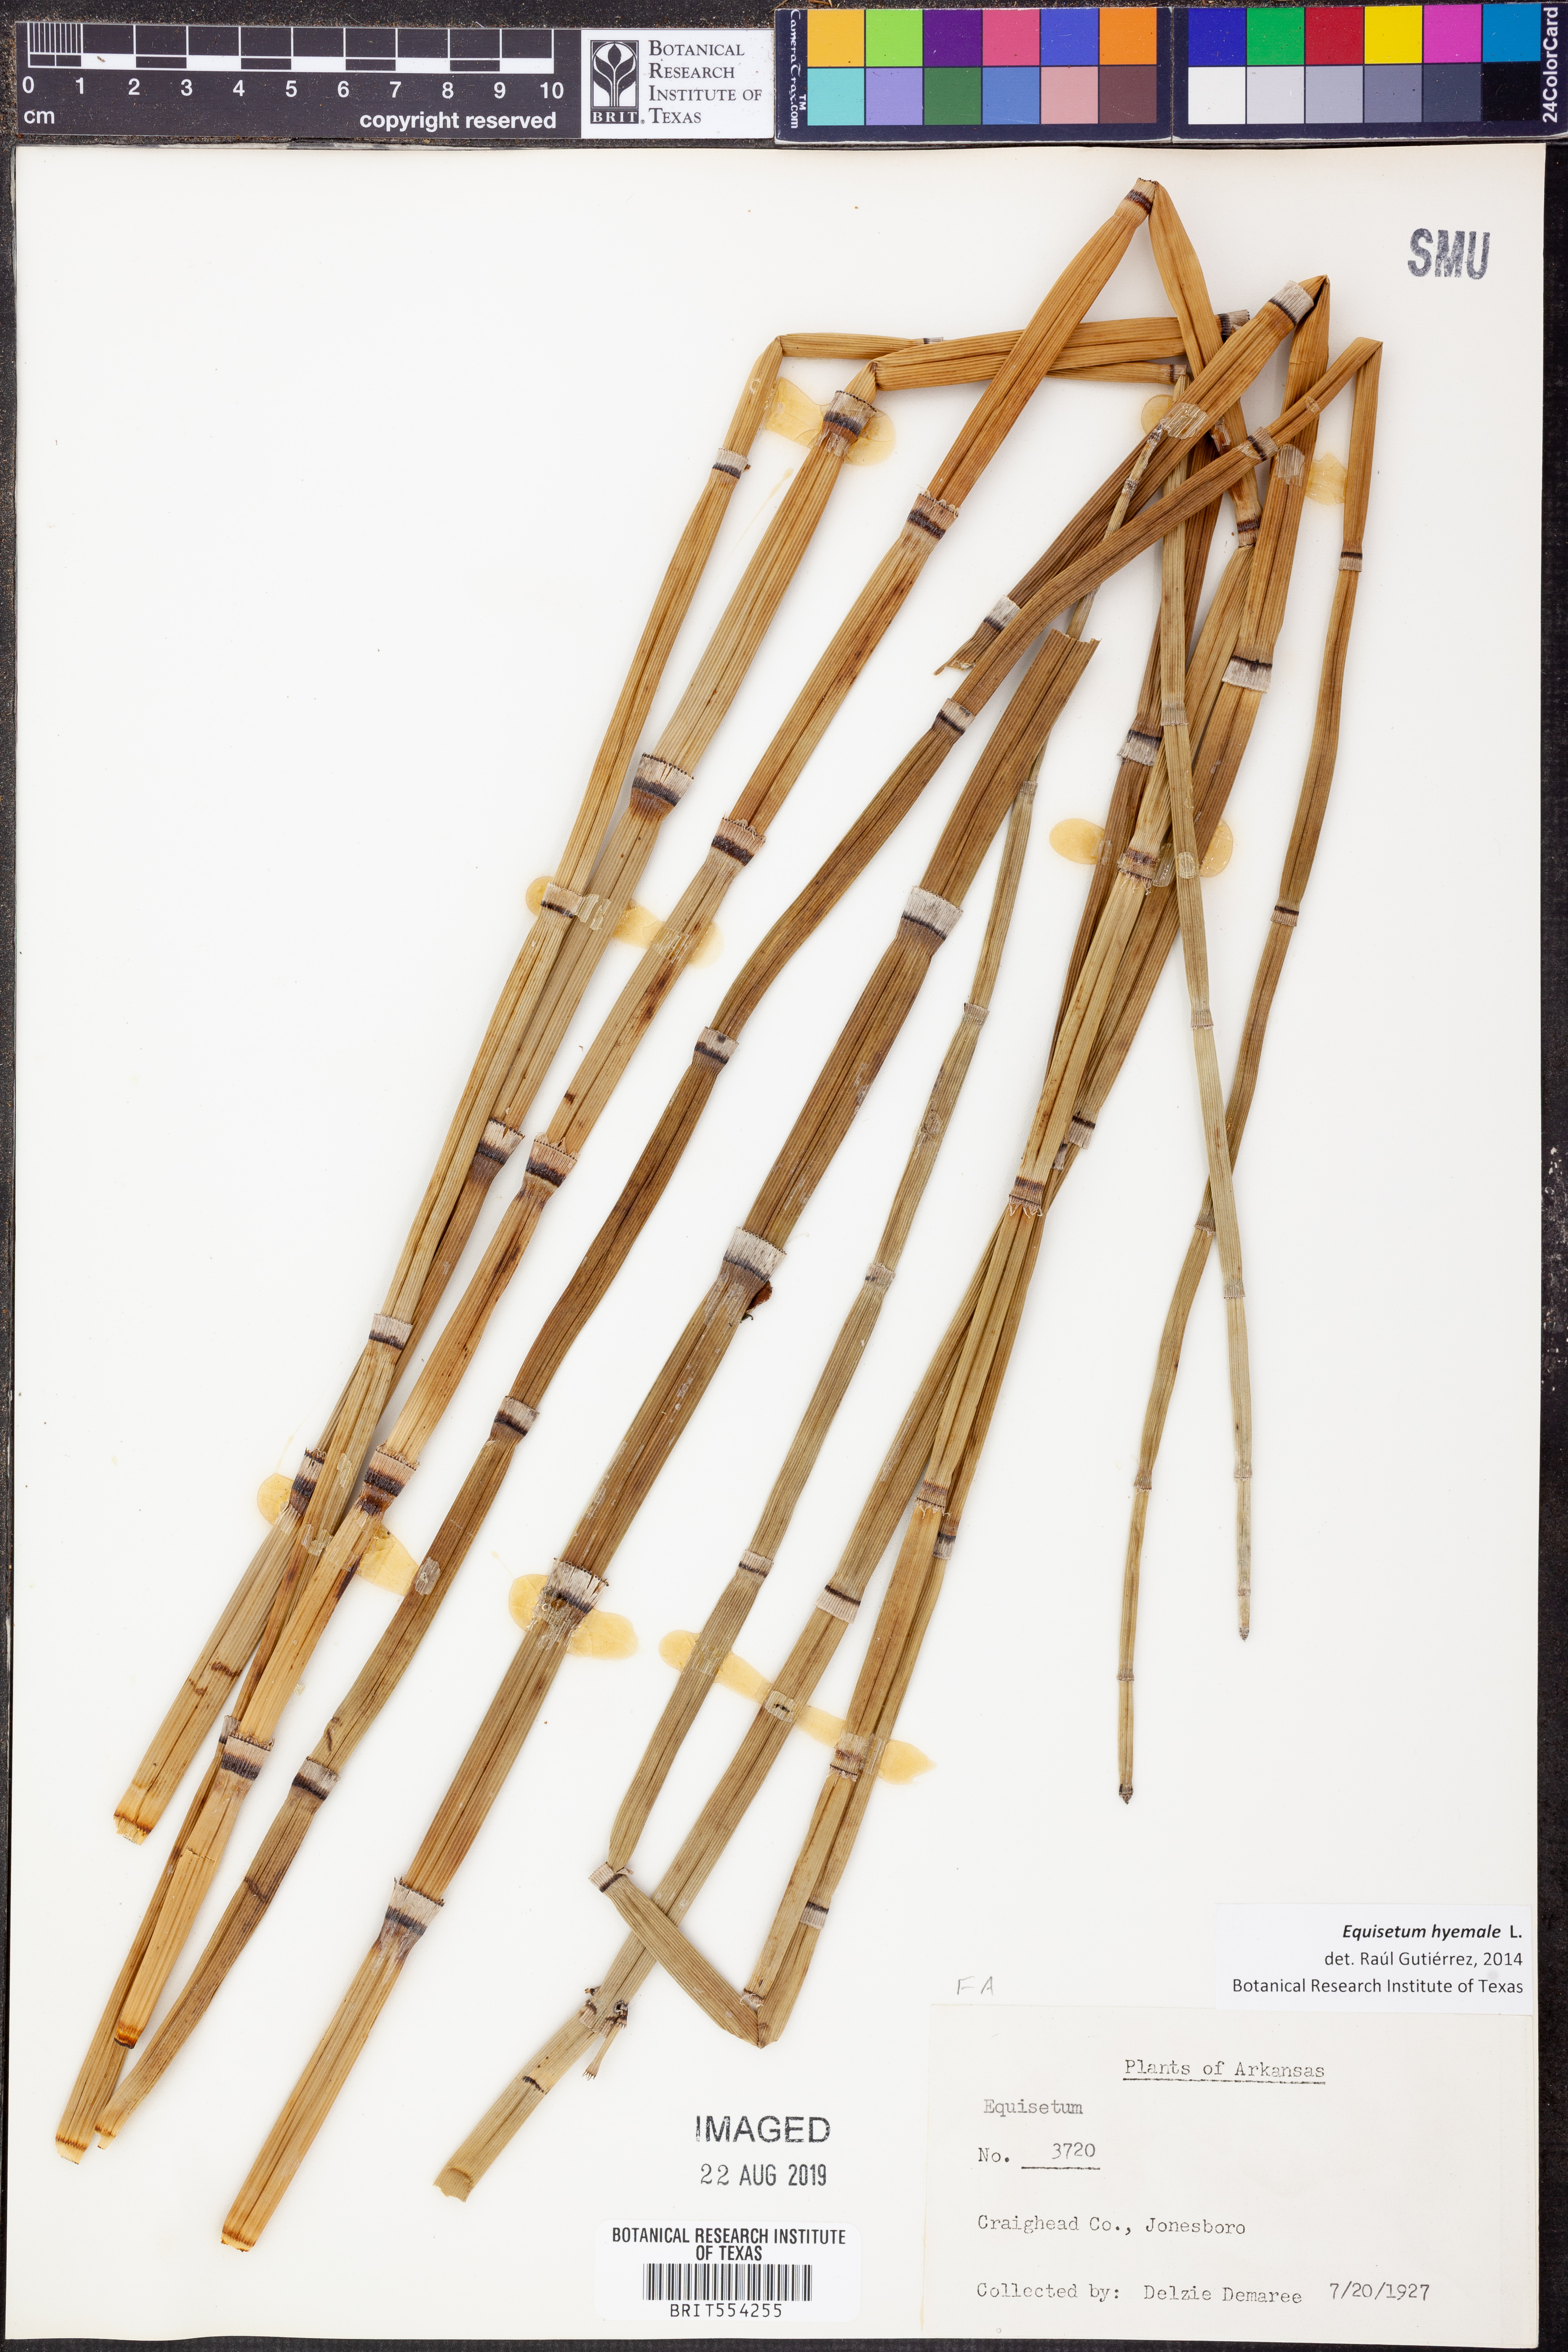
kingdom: Plantae
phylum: Tracheophyta
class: Polypodiopsida
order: Equisetales
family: Equisetaceae
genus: Equisetum
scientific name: Equisetum hyemale
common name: Rough horsetail
